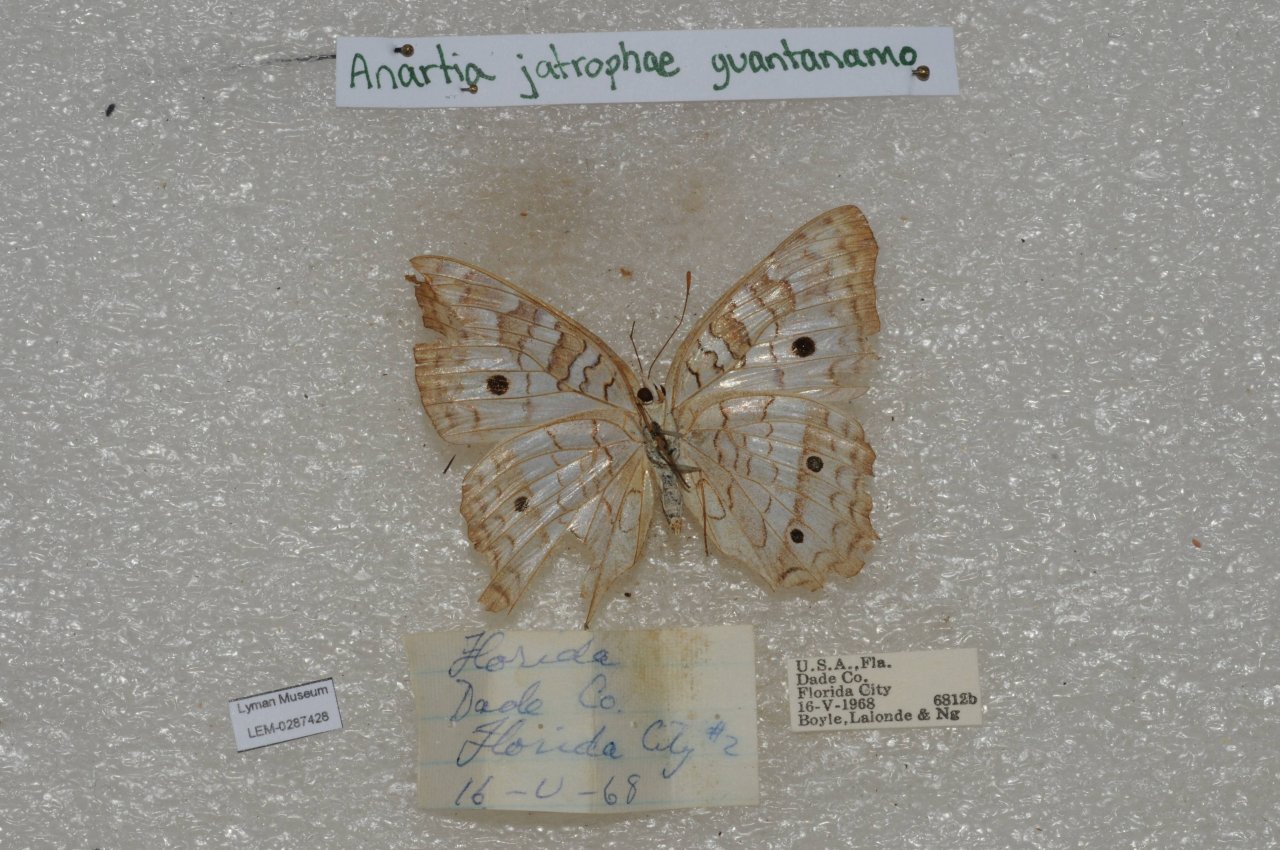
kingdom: Animalia
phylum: Arthropoda
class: Insecta
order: Lepidoptera
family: Nymphalidae
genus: Anartia
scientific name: Anartia jatrophae
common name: White Peacock
